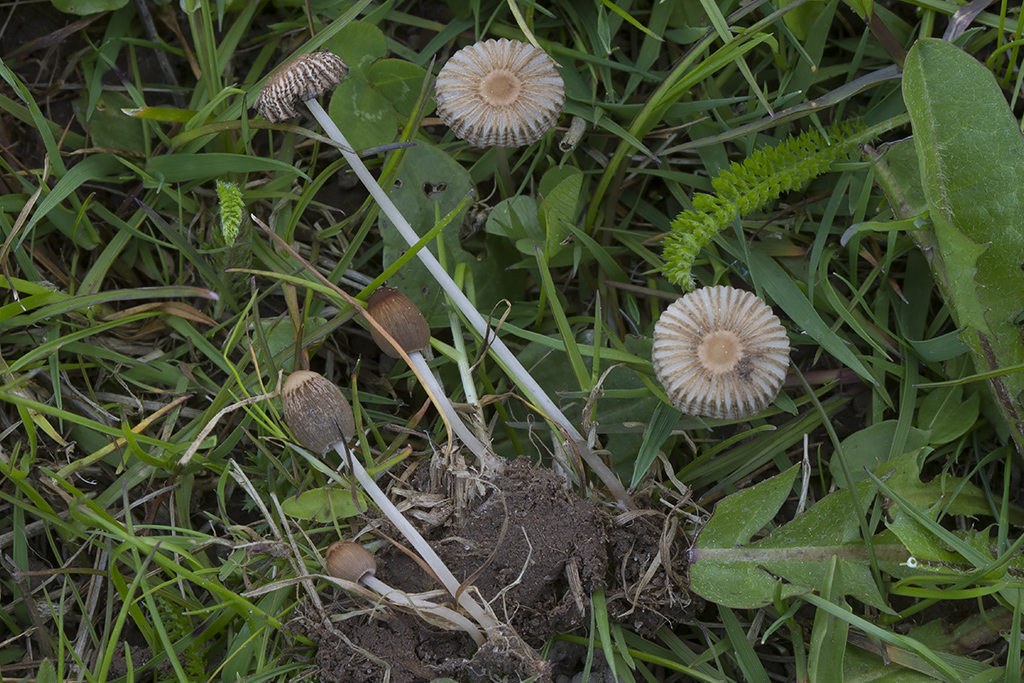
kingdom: Fungi
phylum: Basidiomycota
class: Agaricomycetes
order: Agaricales
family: Psathyrellaceae
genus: Parasola
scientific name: Parasola schroeteri
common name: bredsporet hjulhat
